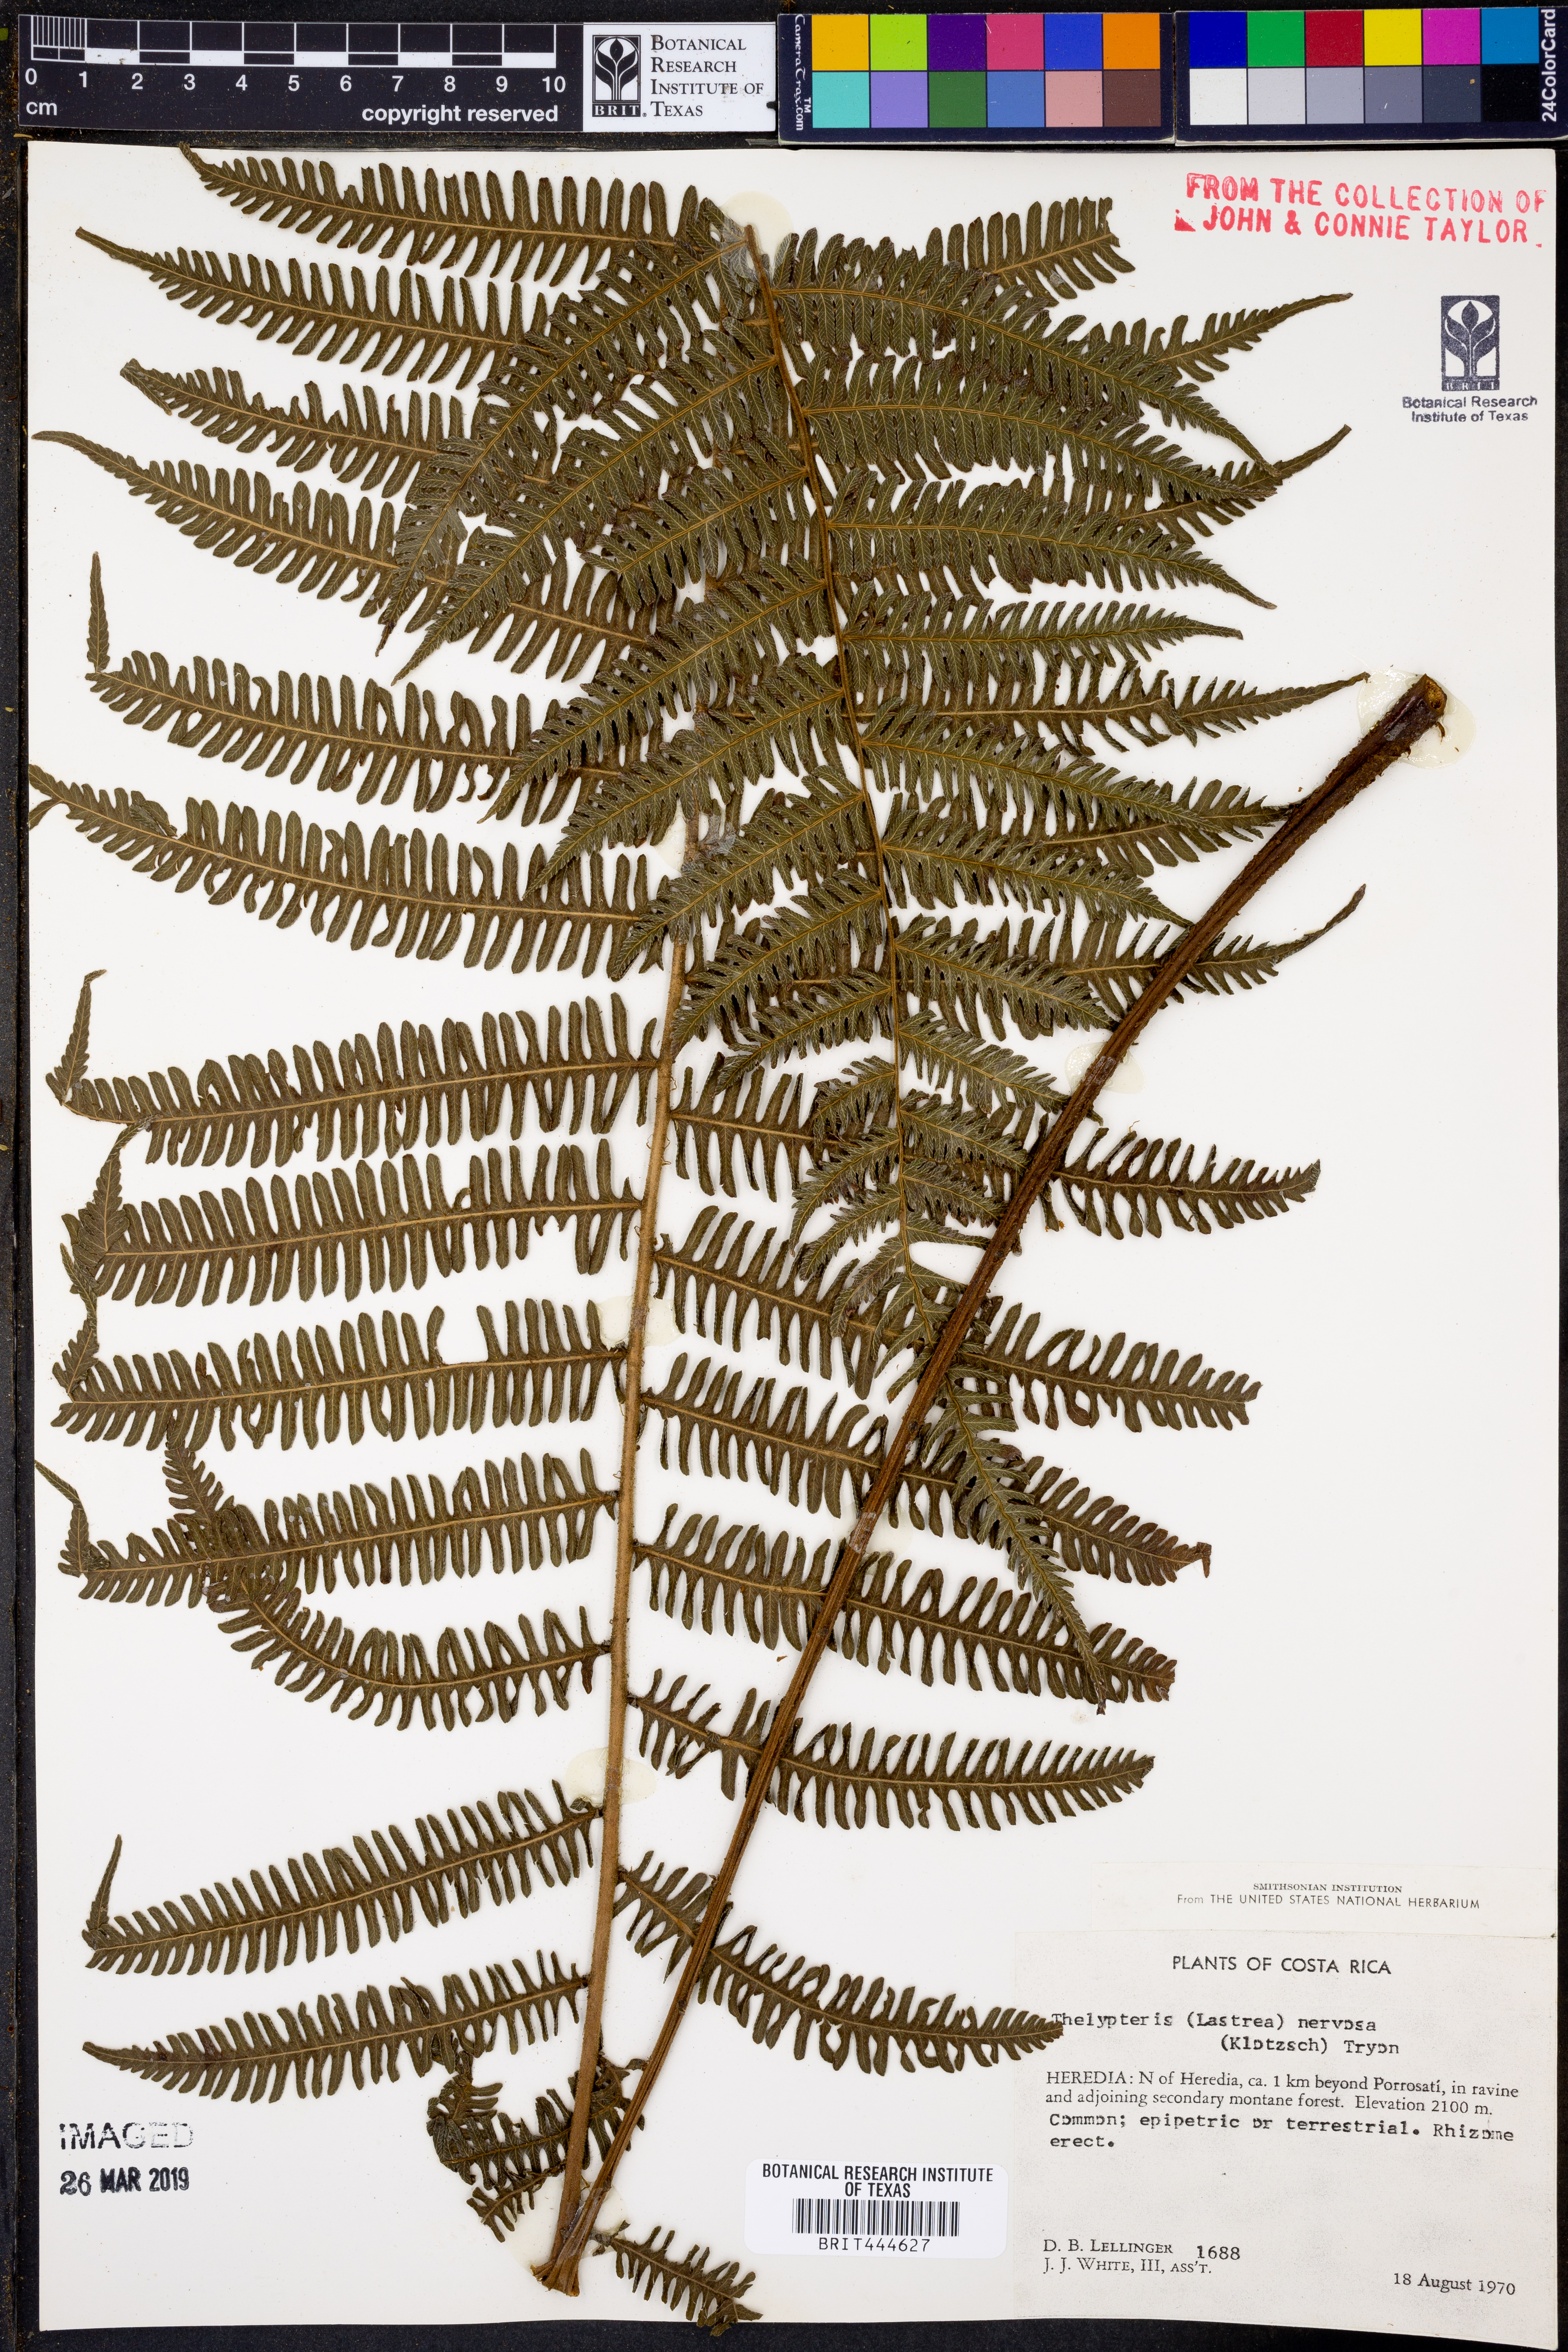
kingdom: Plantae
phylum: Tracheophyta
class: Polypodiopsida
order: Polypodiales
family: Thelypteridaceae
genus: Amauropelta
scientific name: Amauropelta rudis
